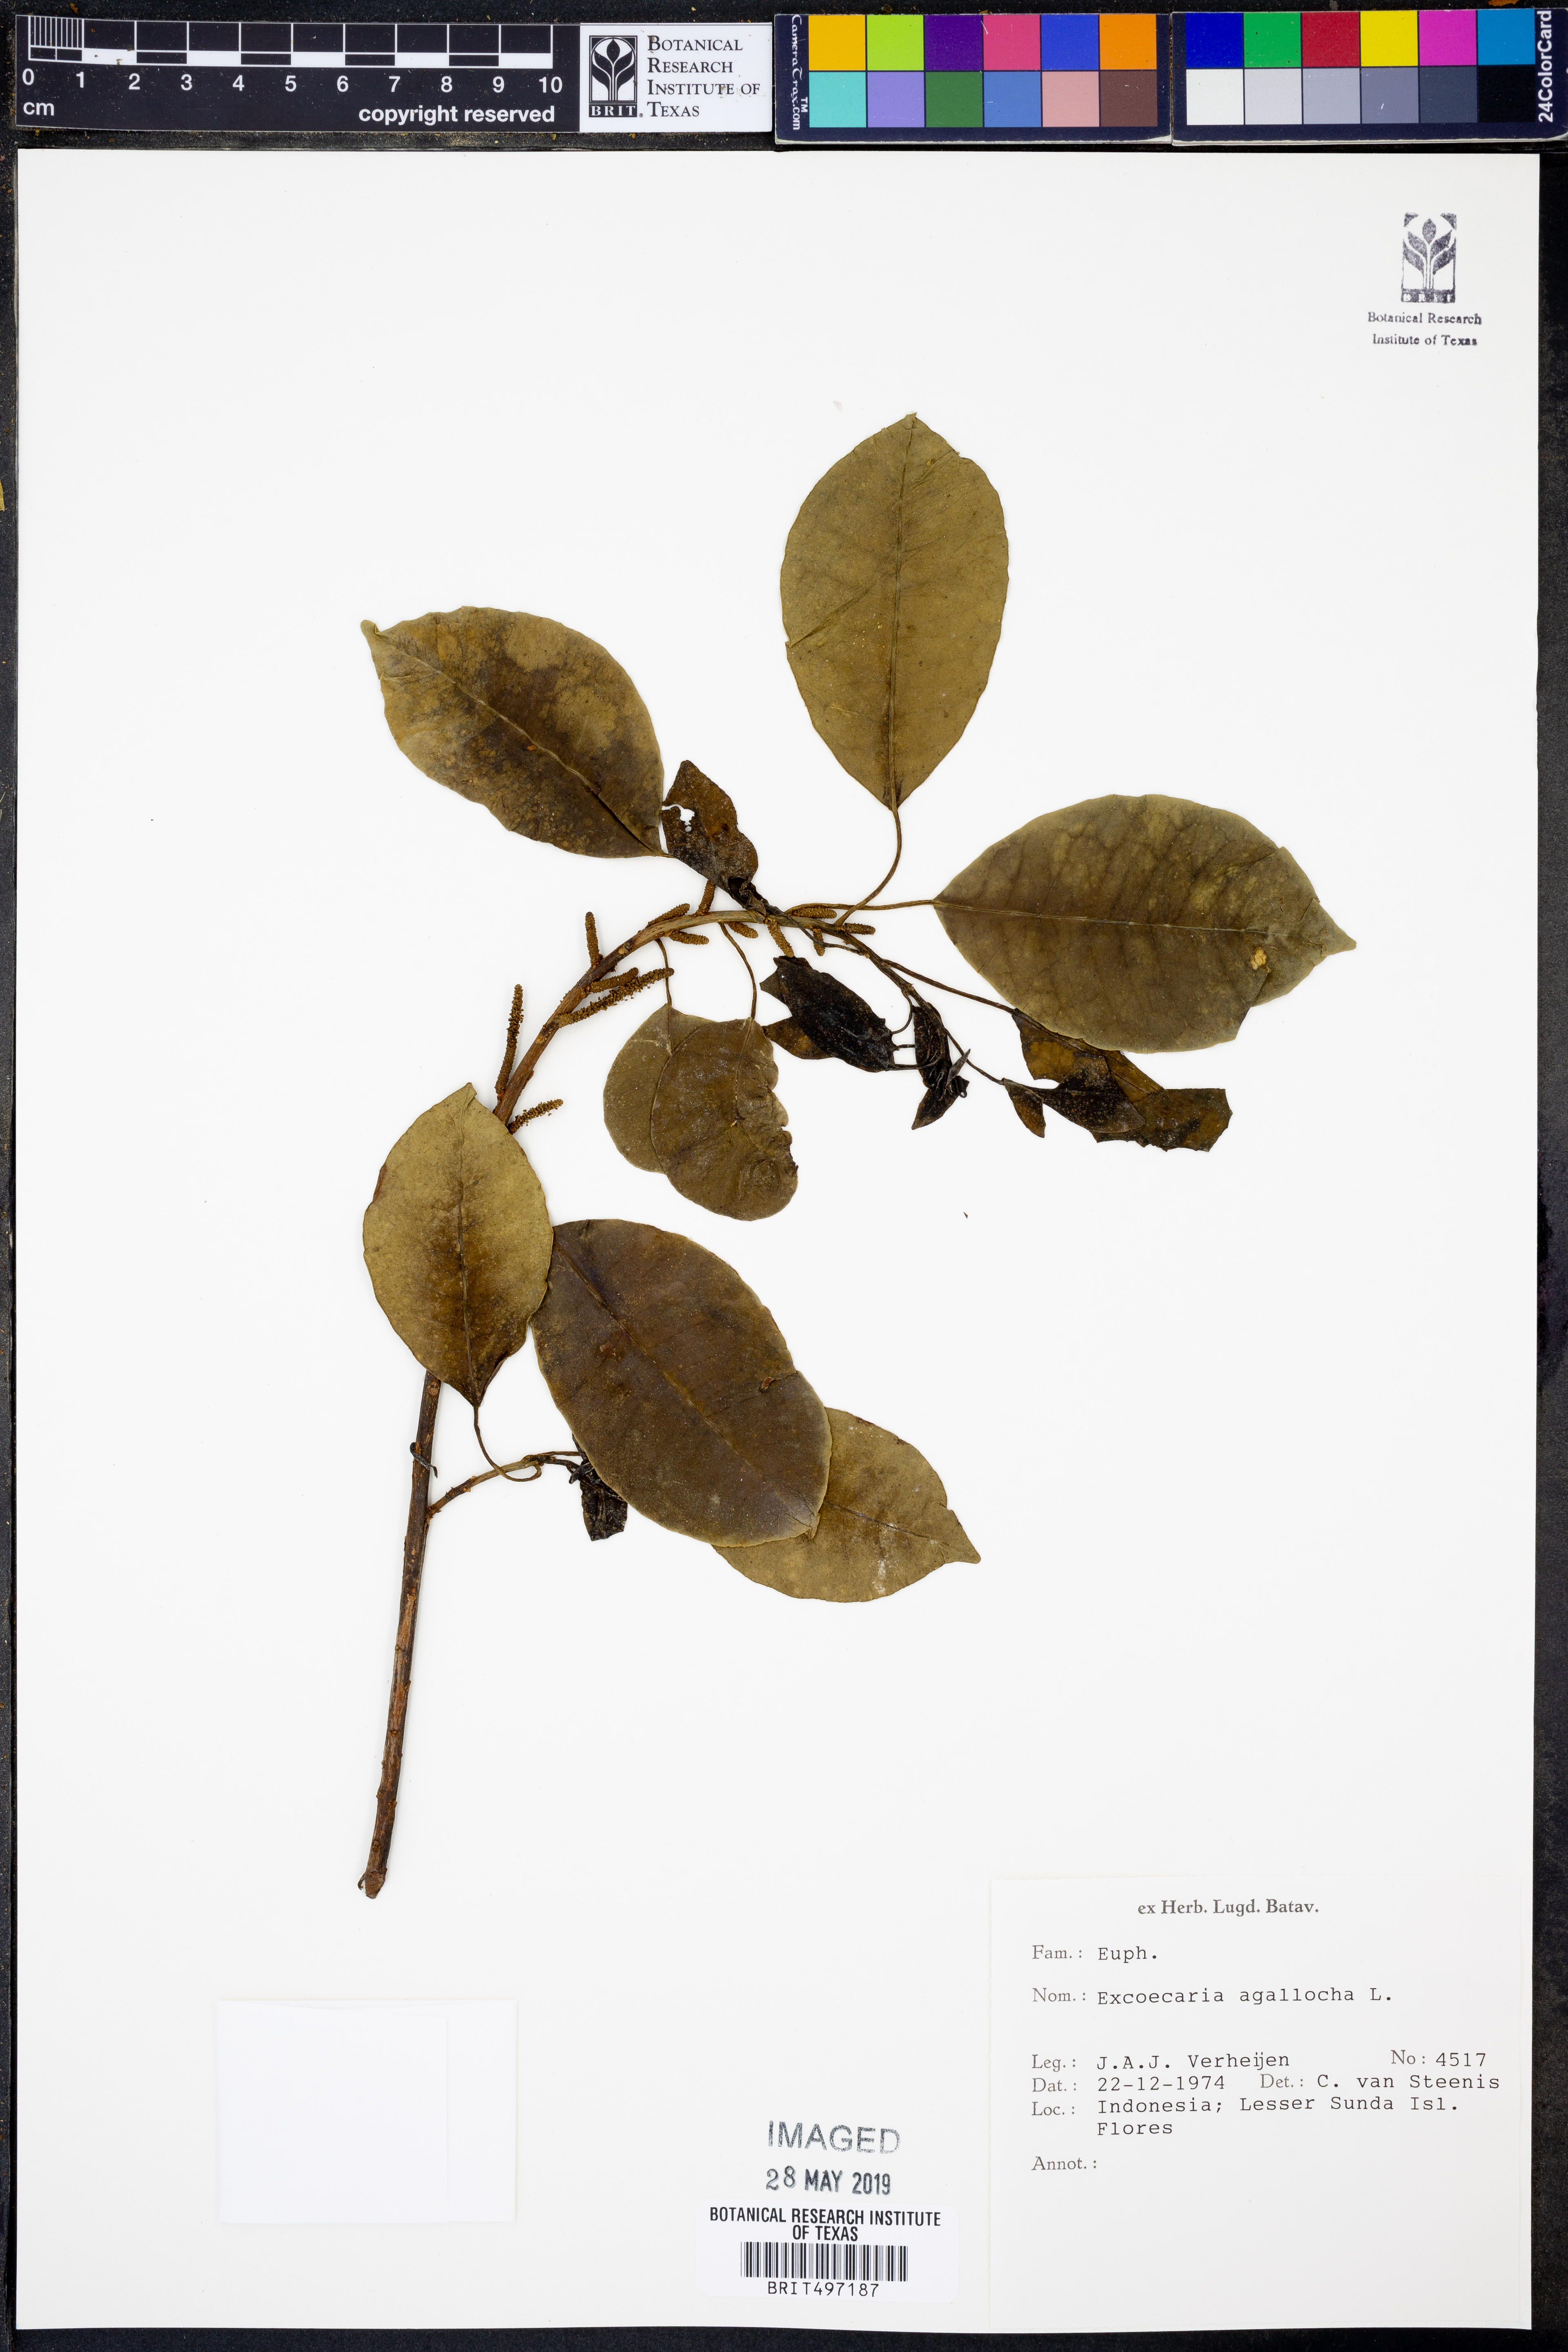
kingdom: Plantae
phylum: Tracheophyta
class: Magnoliopsida
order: Malpighiales
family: Euphorbiaceae
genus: Excoecaria
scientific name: Excoecaria agallocha
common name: River poisontree
